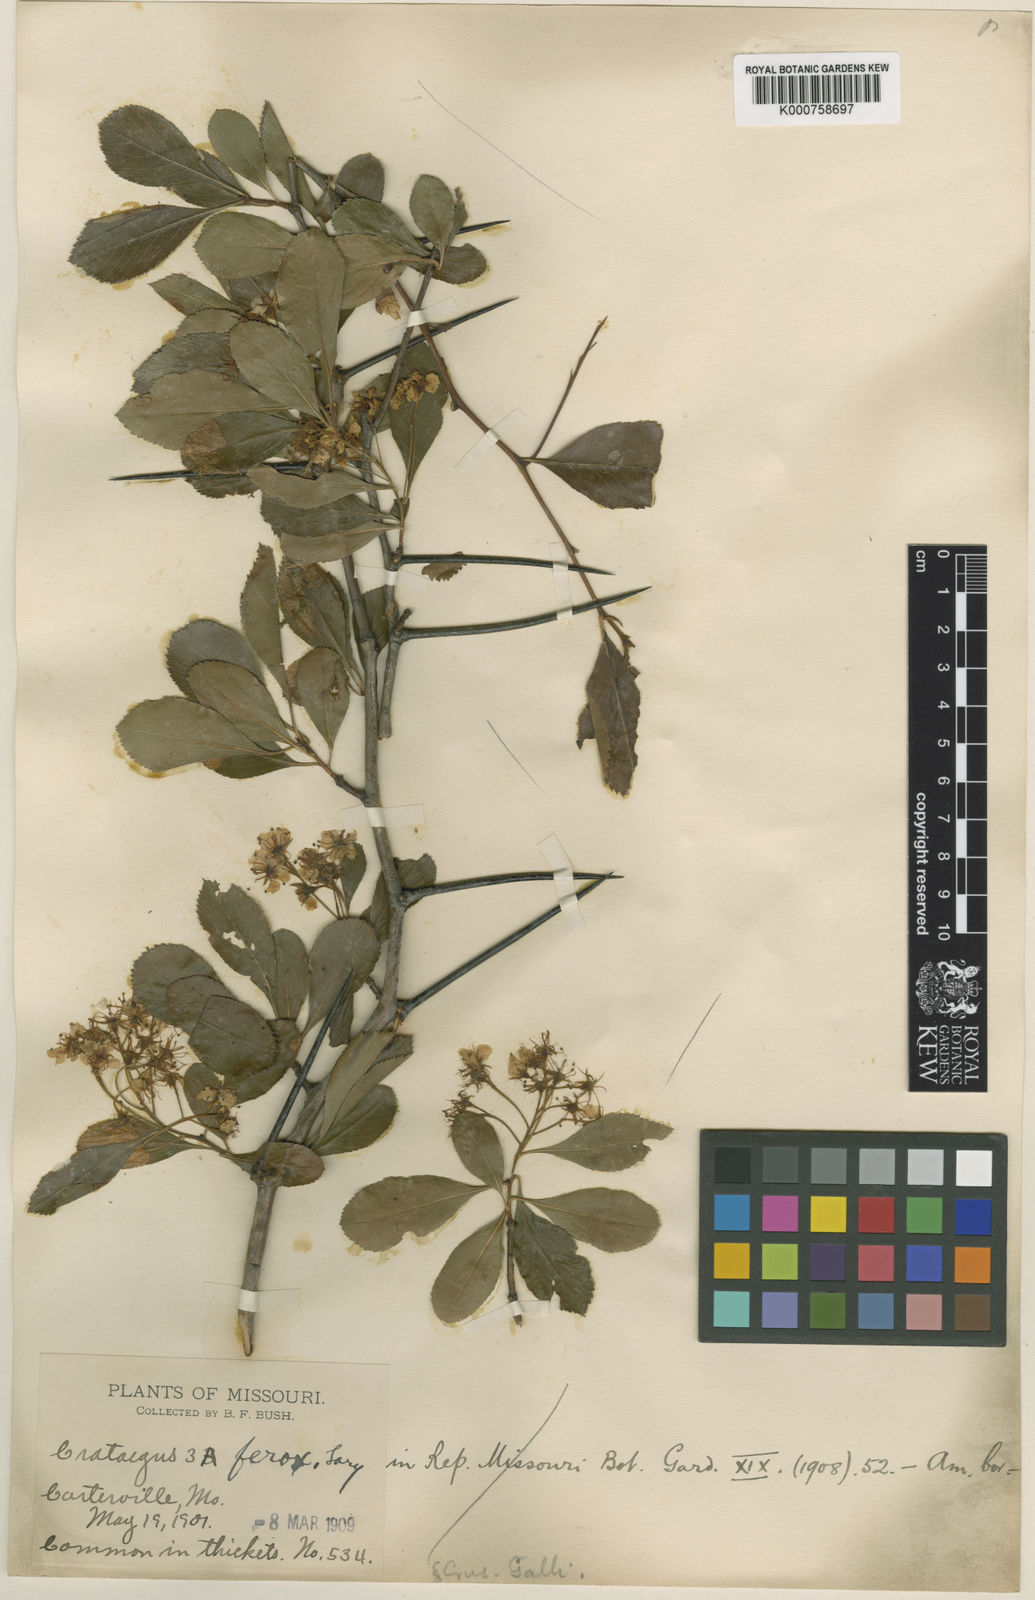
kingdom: Plantae
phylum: Tracheophyta
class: Magnoliopsida
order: Rosales
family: Rosaceae
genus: Crataegus
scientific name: Crataegus chrysocarpa
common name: Fire-berry hawthorn
